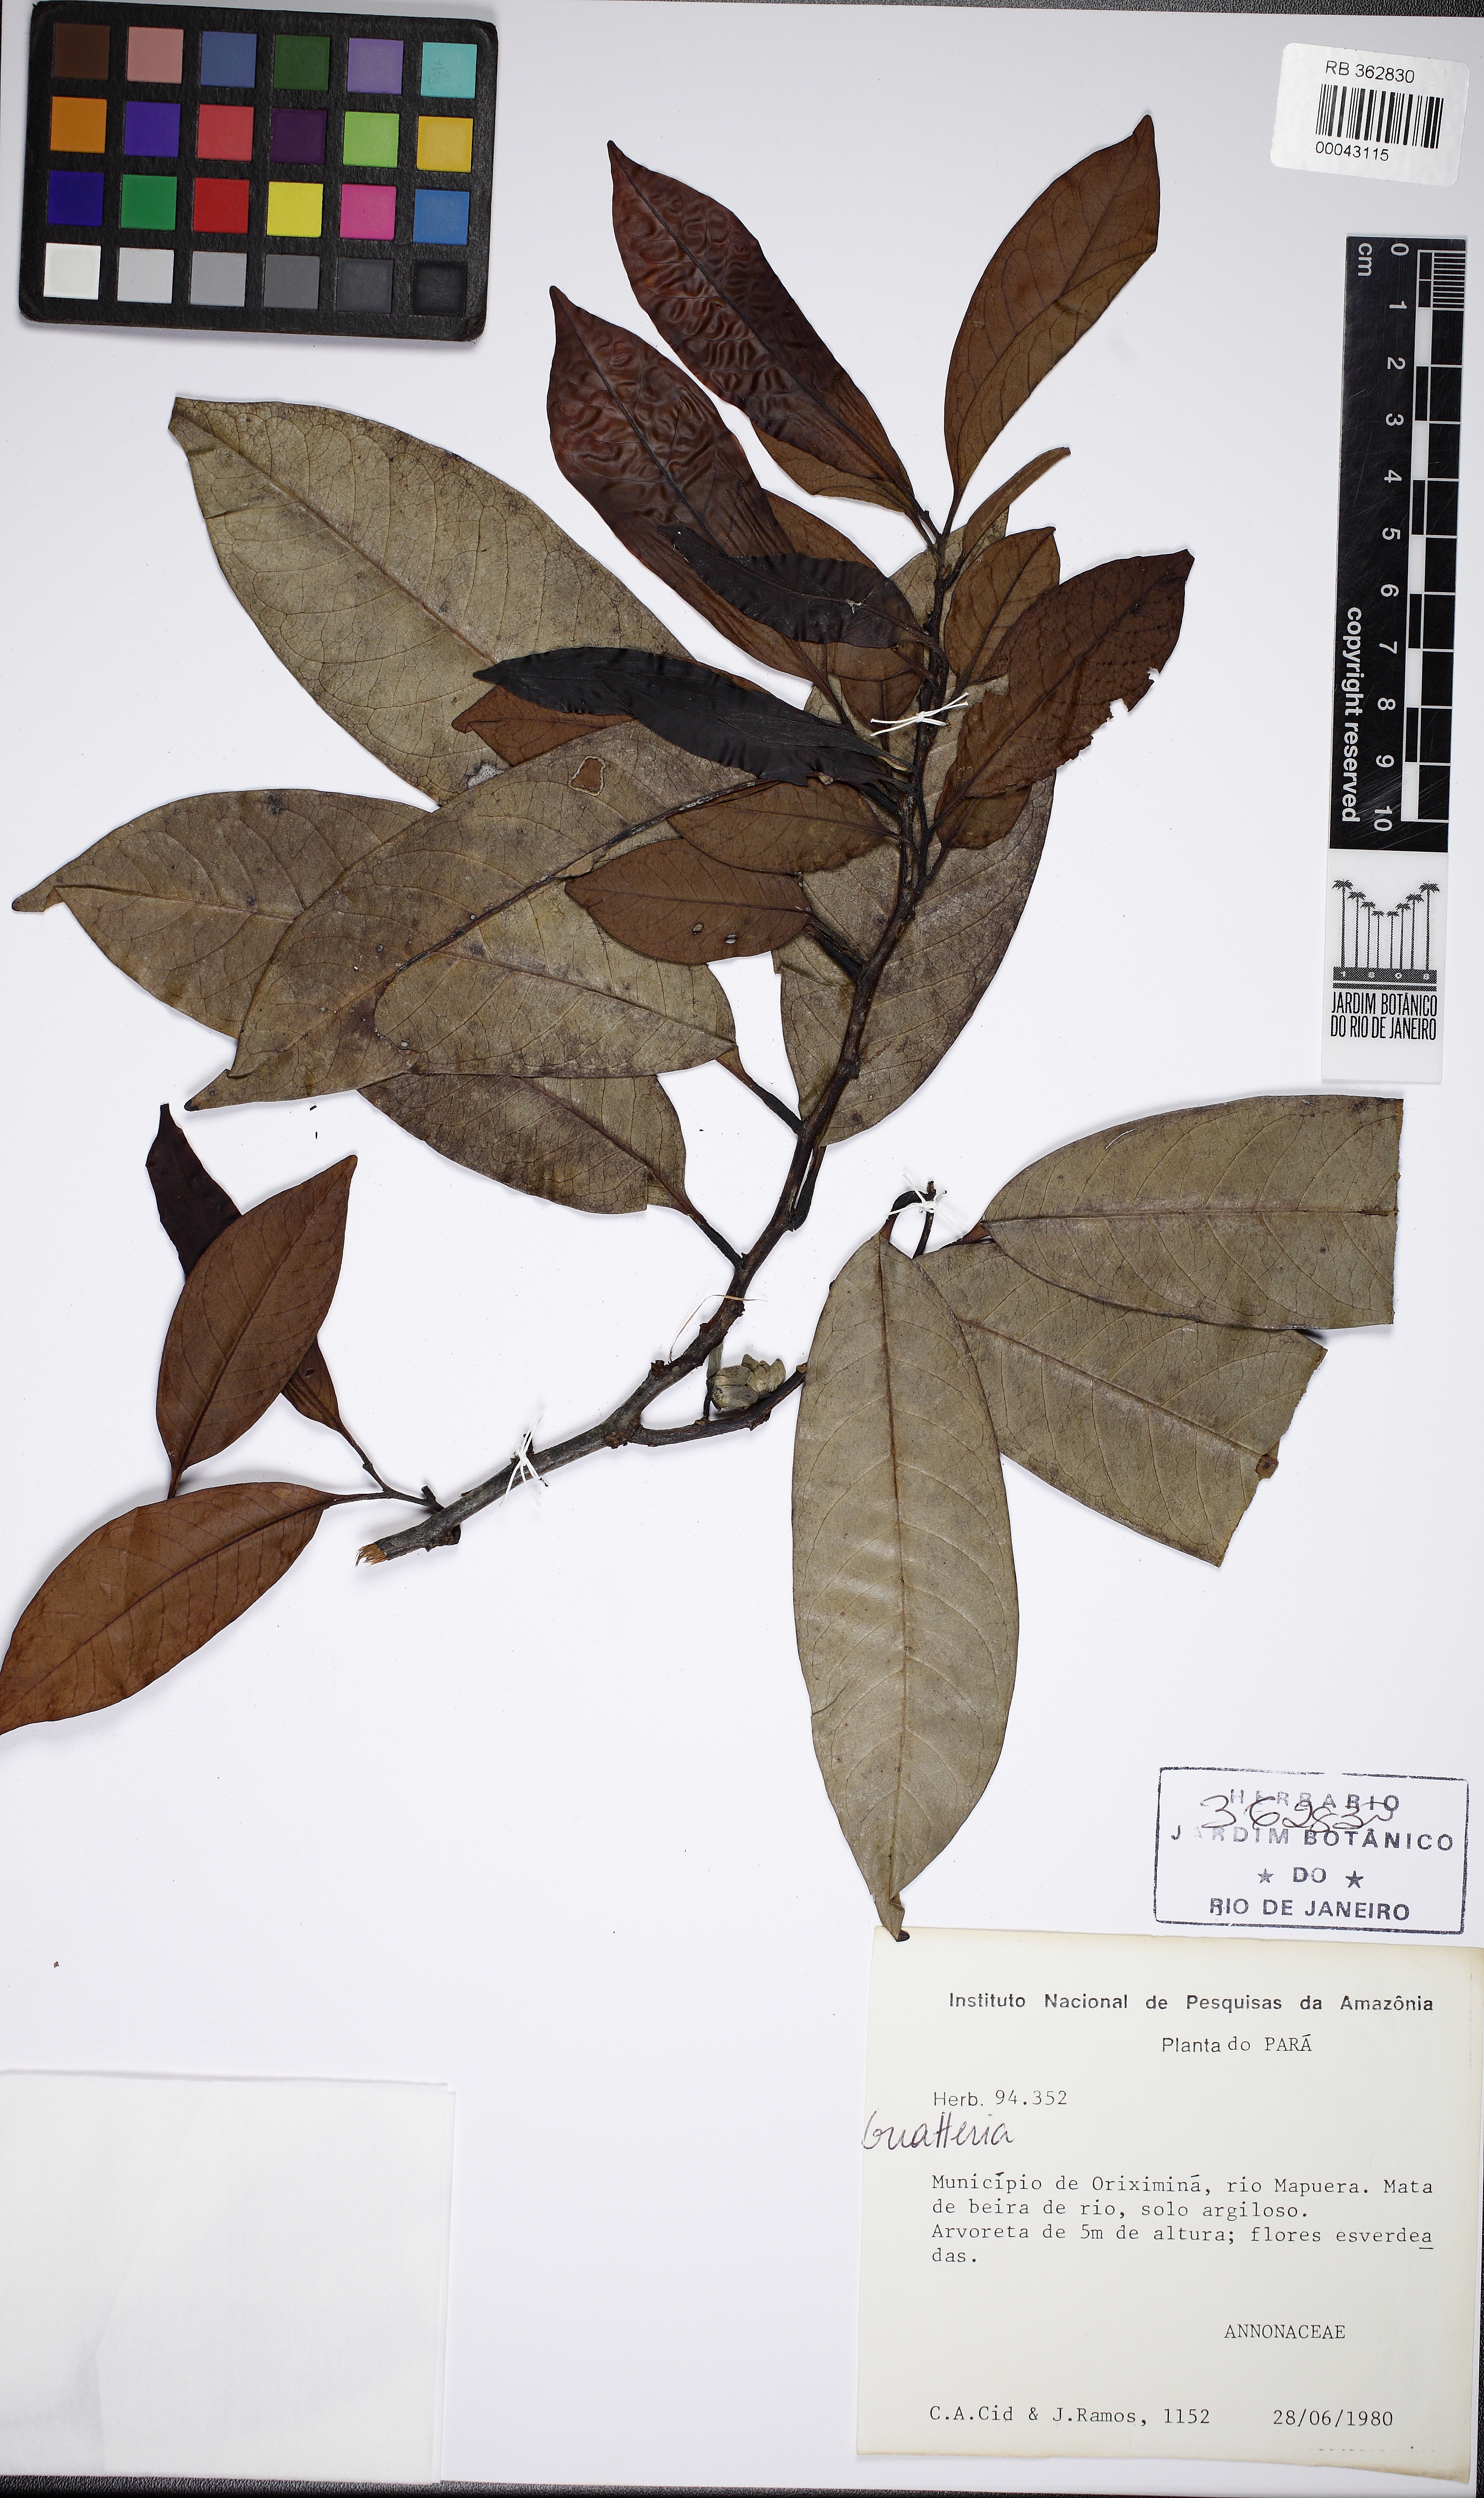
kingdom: Plantae
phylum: Tracheophyta
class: Magnoliopsida
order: Magnoliales
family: Annonaceae
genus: Guatteria
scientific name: Guatteria
